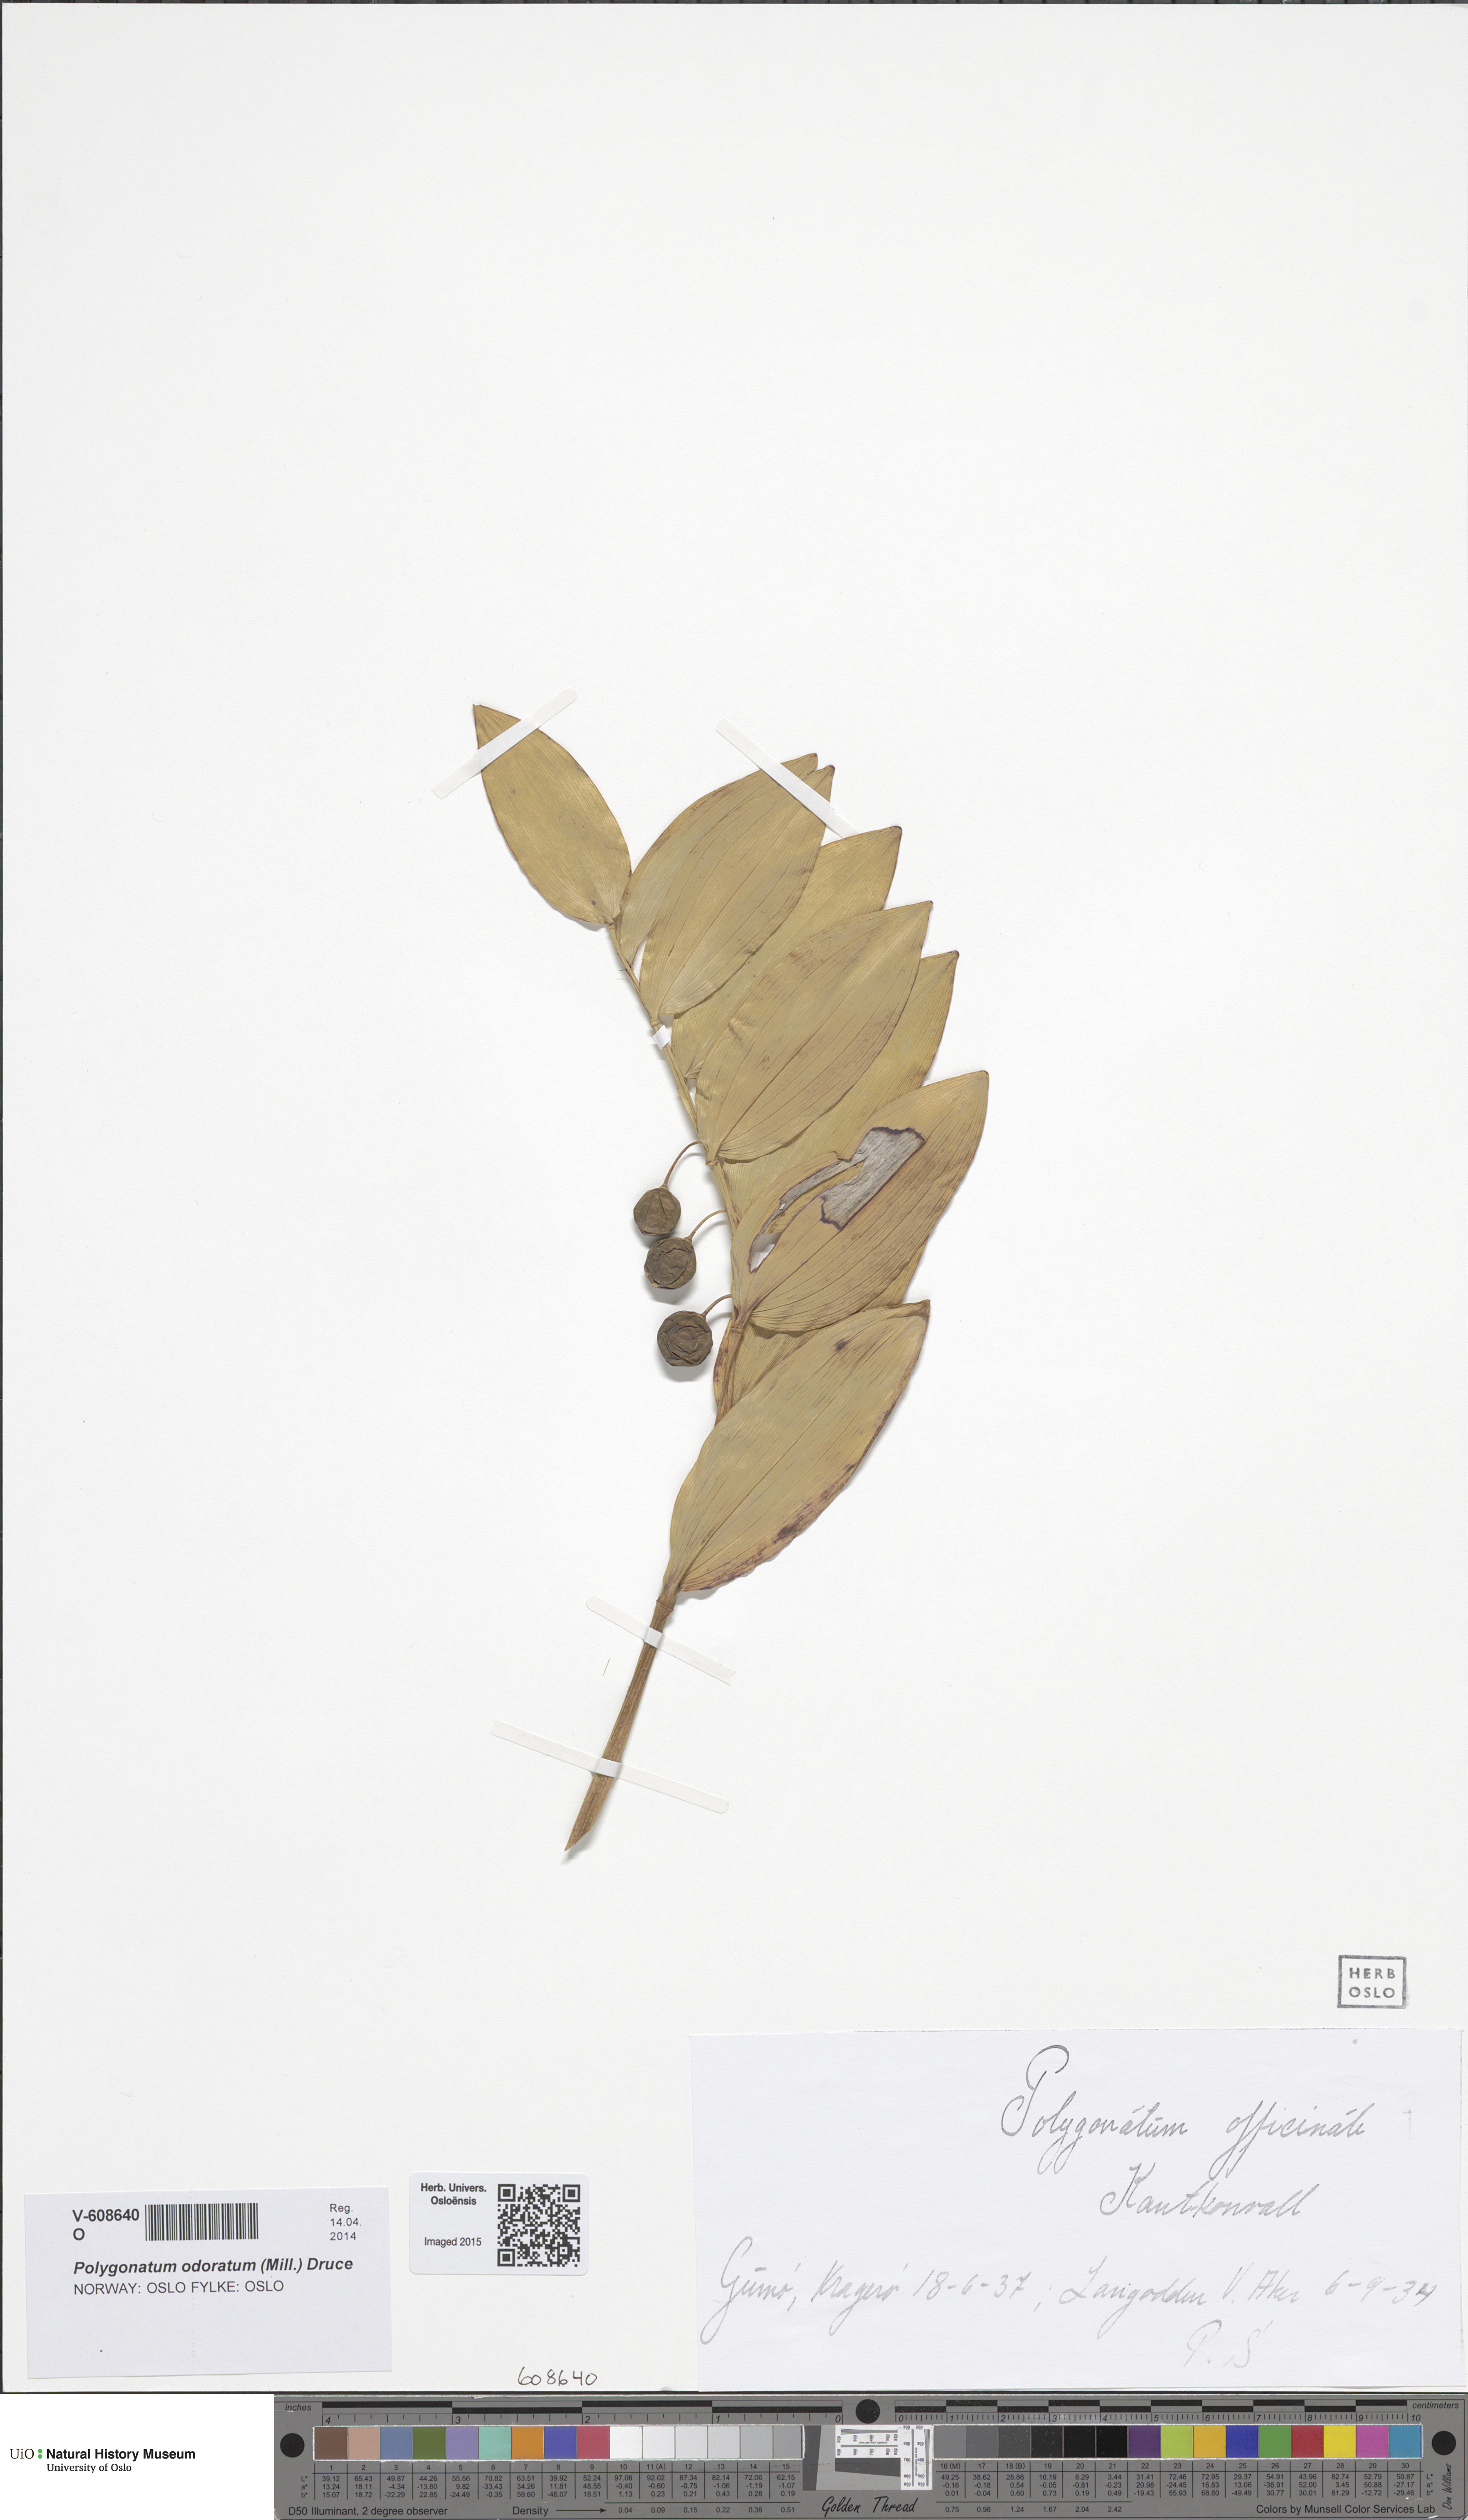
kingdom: Plantae
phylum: Tracheophyta
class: Liliopsida
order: Asparagales
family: Asparagaceae
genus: Polygonatum
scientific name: Polygonatum odoratum
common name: Angular solomon's-seal
